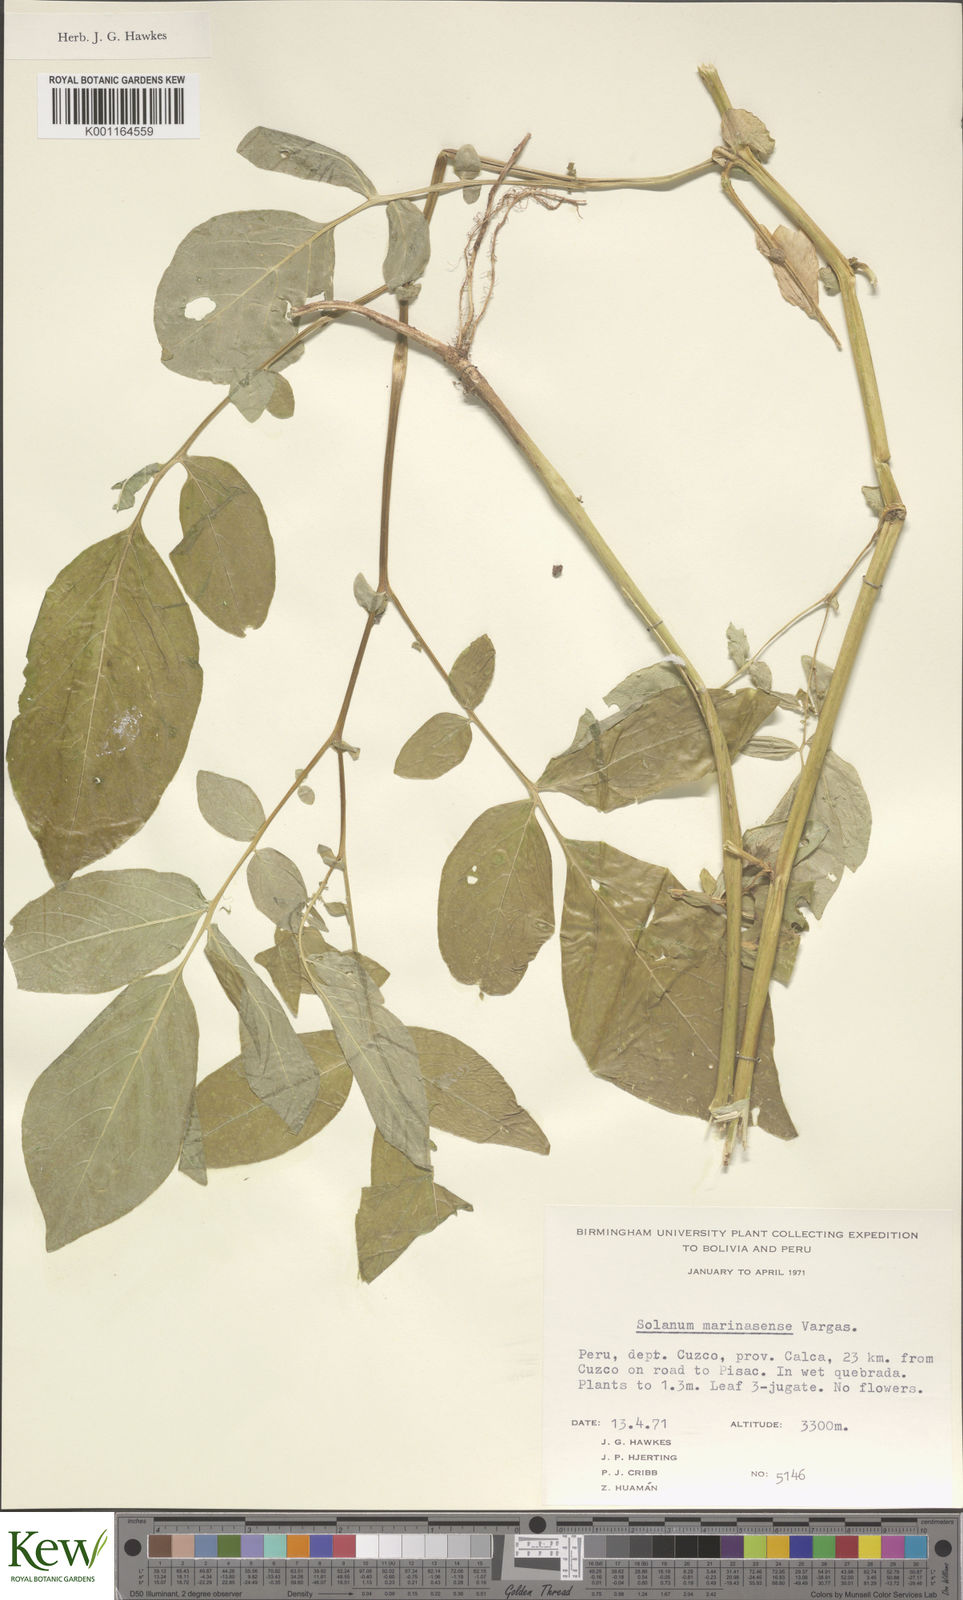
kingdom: Plantae
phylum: Tracheophyta
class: Magnoliopsida
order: Solanales
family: Solanaceae
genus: Solanum
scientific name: Solanum candolleanum
